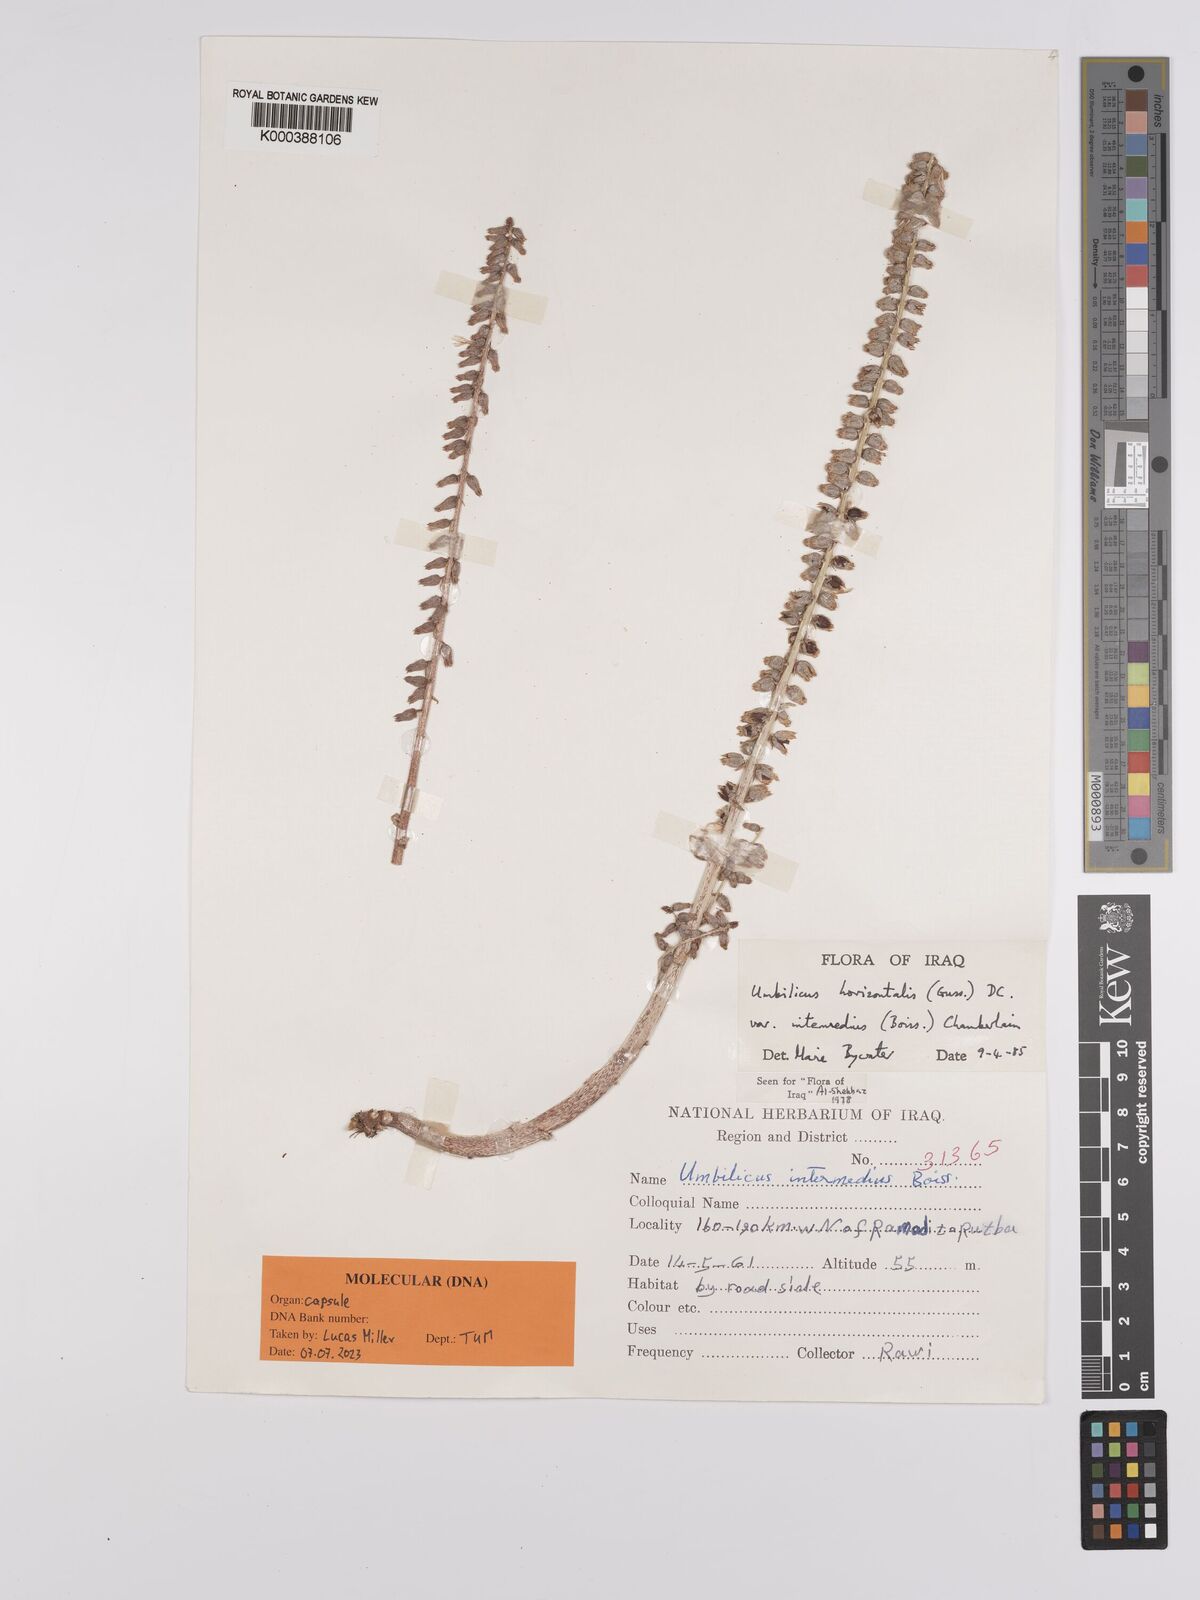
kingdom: Plantae
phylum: Tracheophyta
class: Magnoliopsida
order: Saxifragales
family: Crassulaceae
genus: Umbilicus
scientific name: Umbilicus horizontalis
